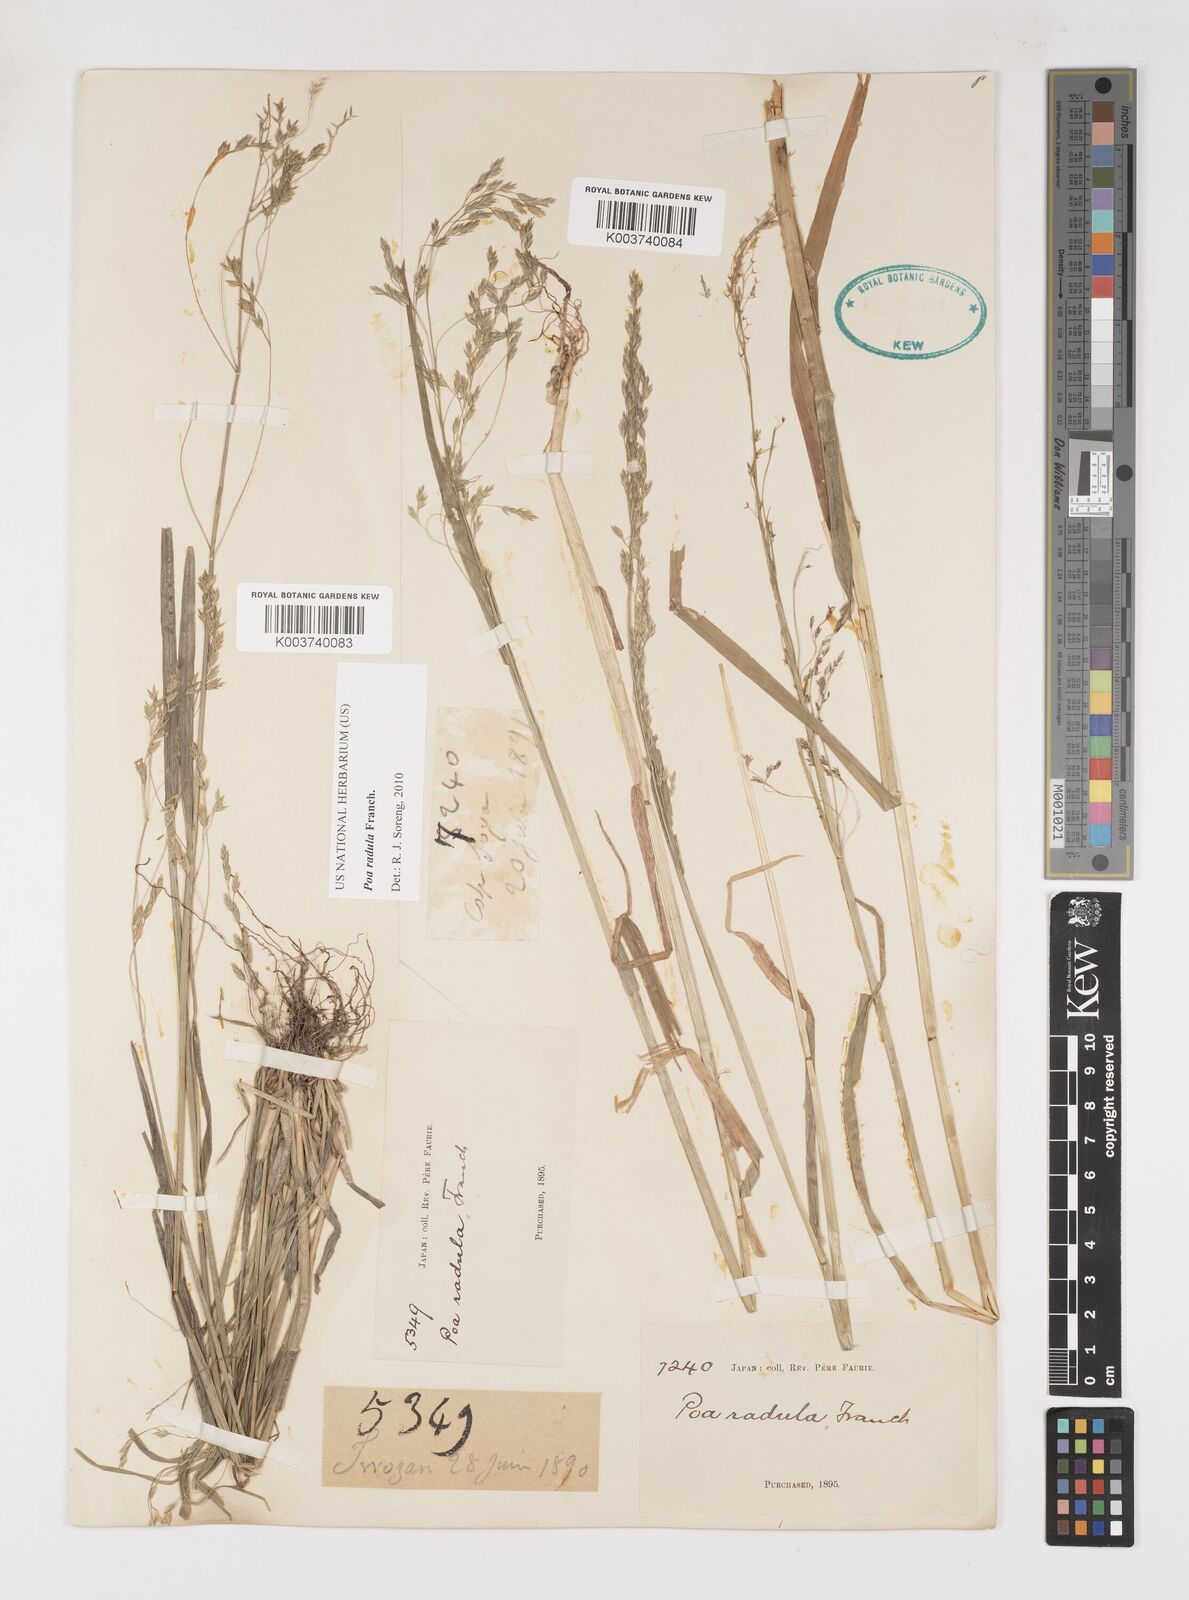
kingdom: Plantae
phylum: Tracheophyta
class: Liliopsida
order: Poales
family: Poaceae
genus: Poa
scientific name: Poa radula
